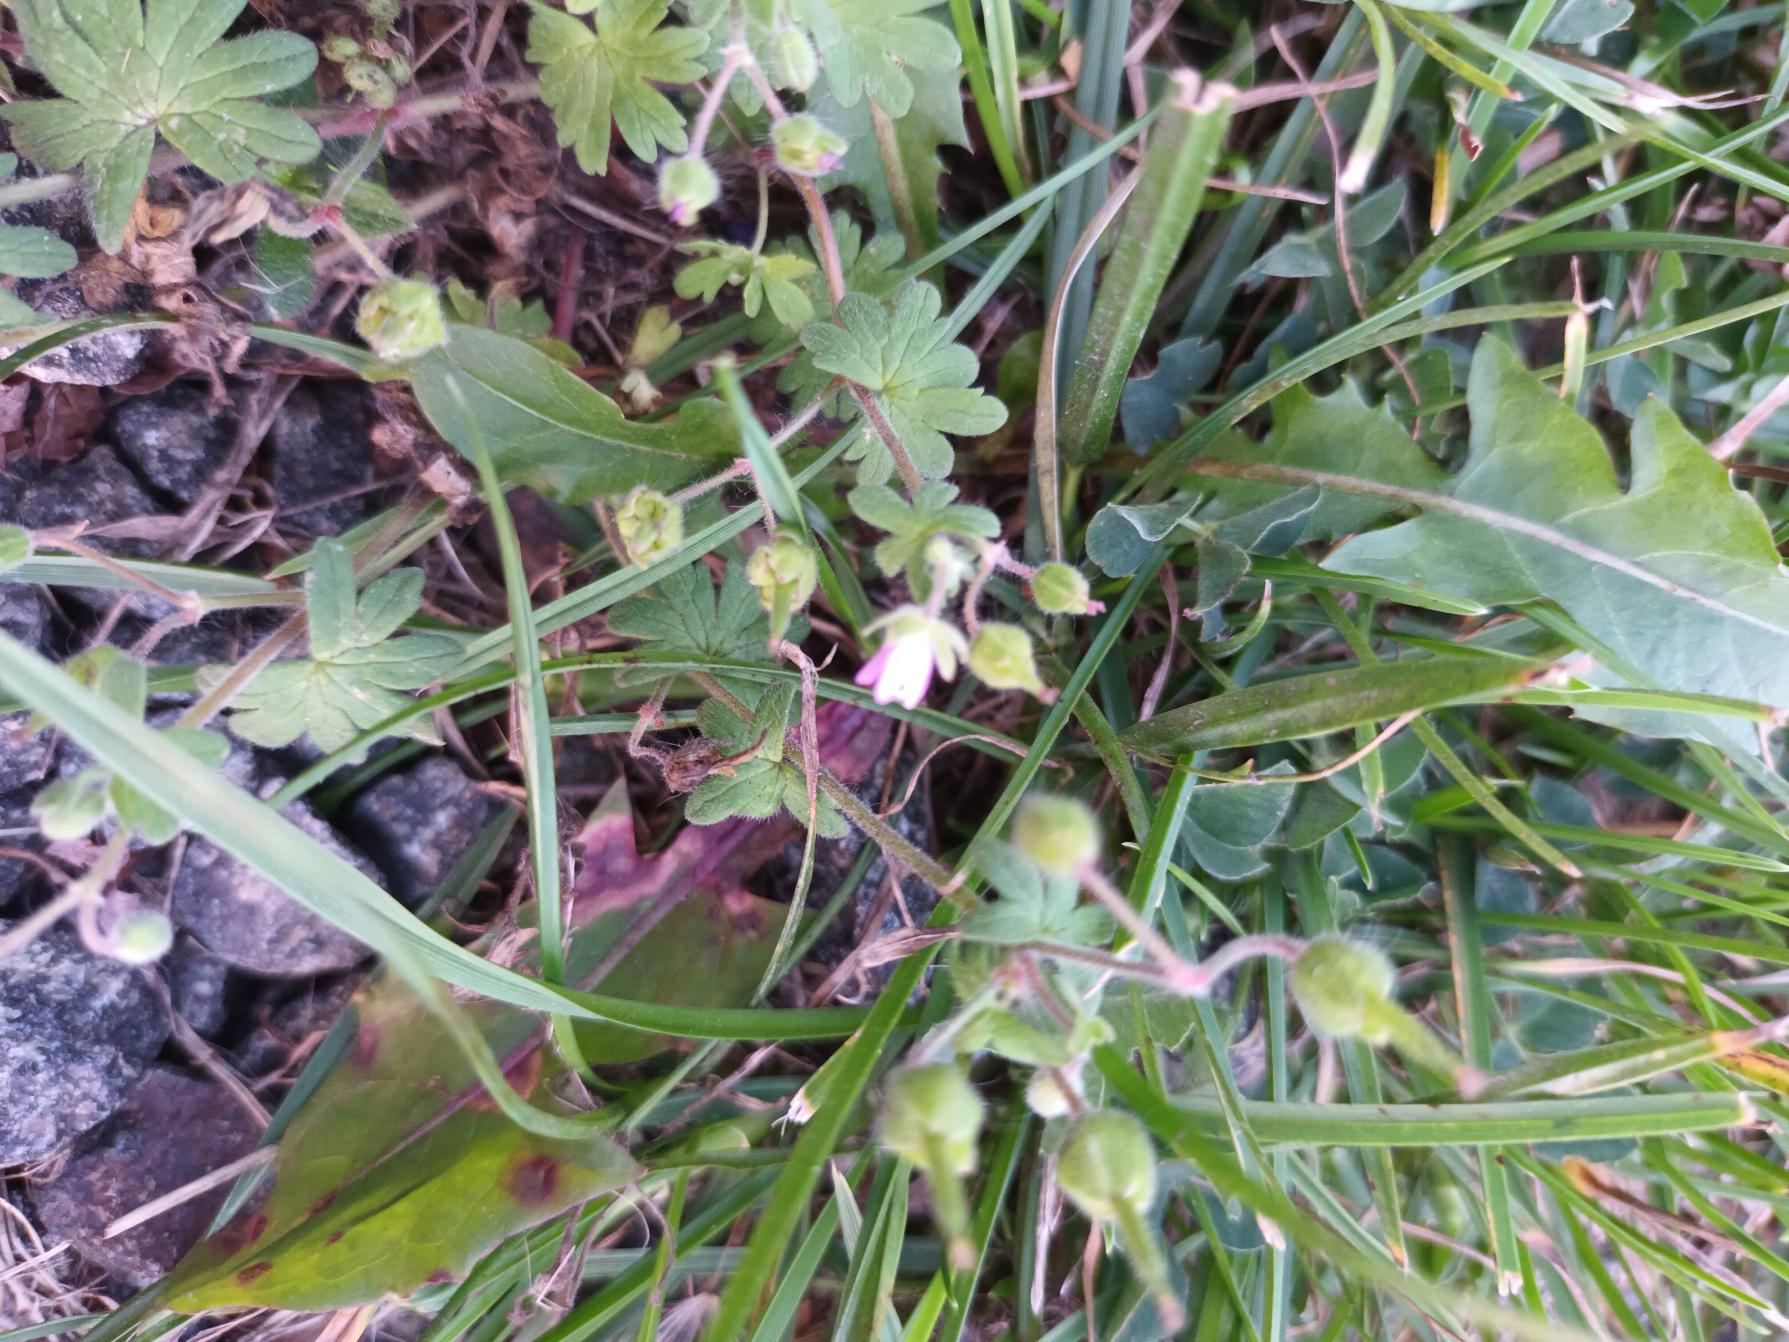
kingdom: Plantae
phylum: Tracheophyta
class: Magnoliopsida
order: Geraniales
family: Geraniaceae
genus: Geranium
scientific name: Geranium molle
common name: Blød storkenæb
